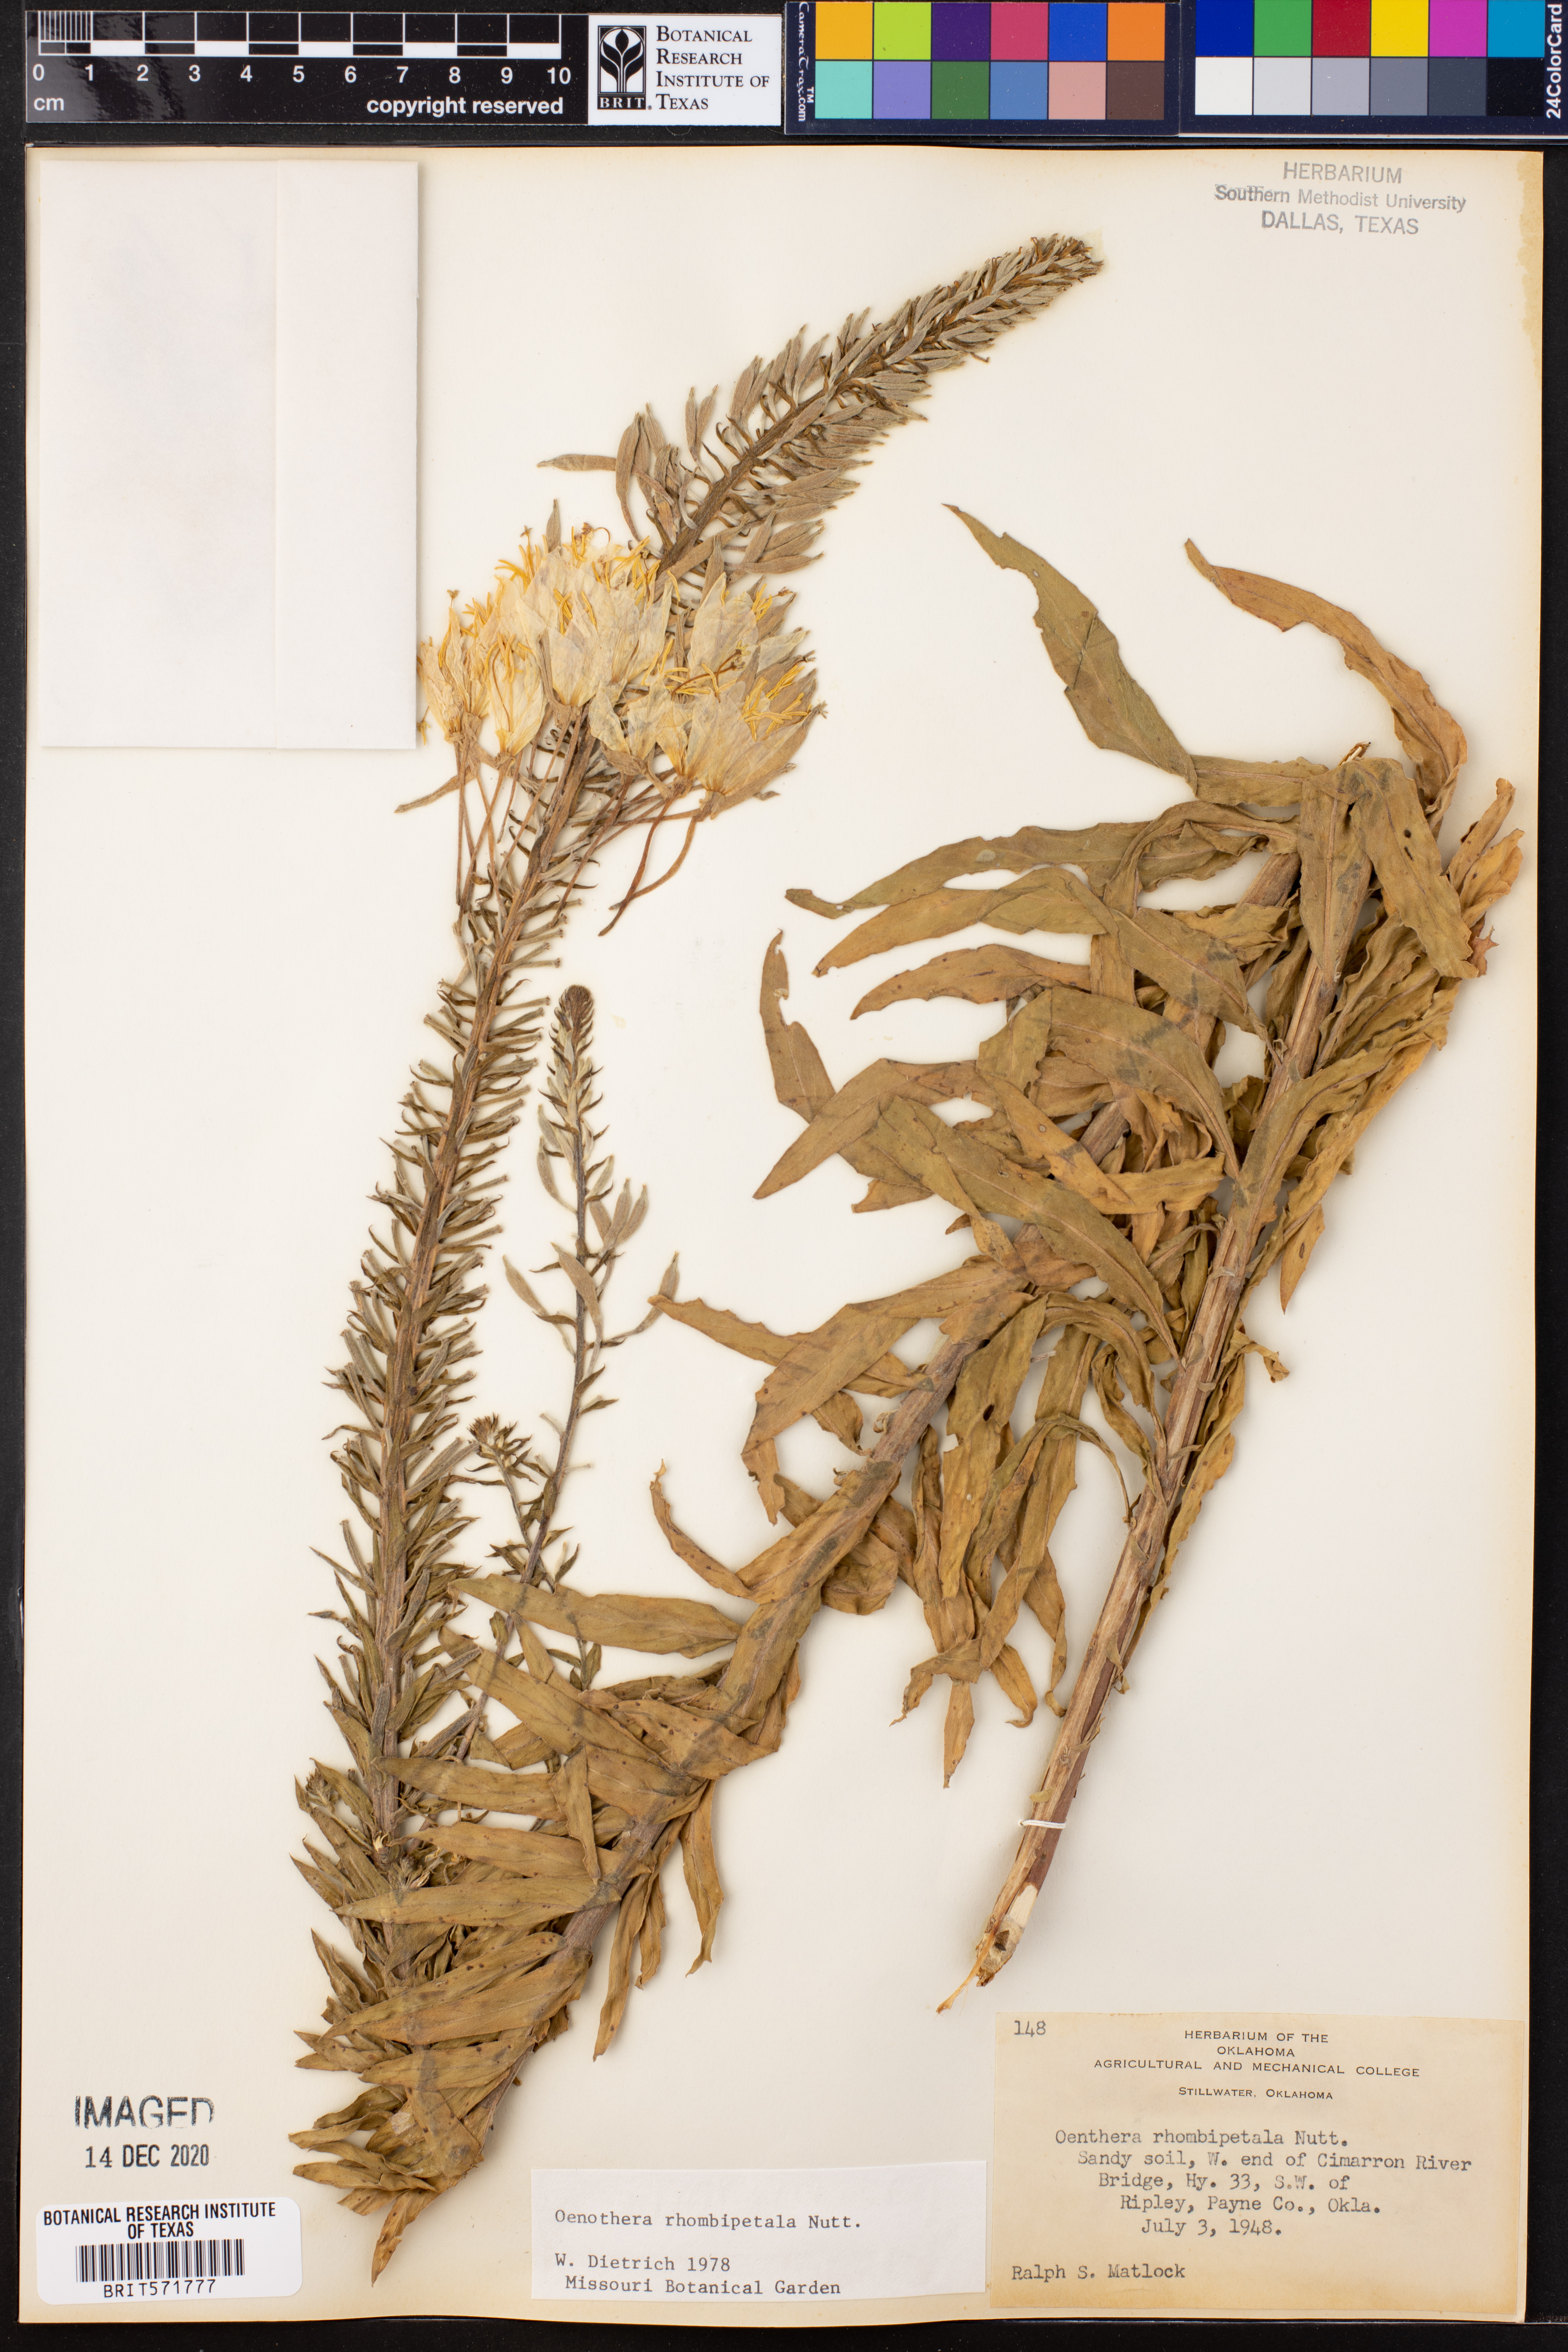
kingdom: Plantae
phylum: Tracheophyta
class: Magnoliopsida
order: Myrtales
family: Onagraceae
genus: Oenothera
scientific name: Oenothera rhombipetala
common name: Four-points evening-primrose
